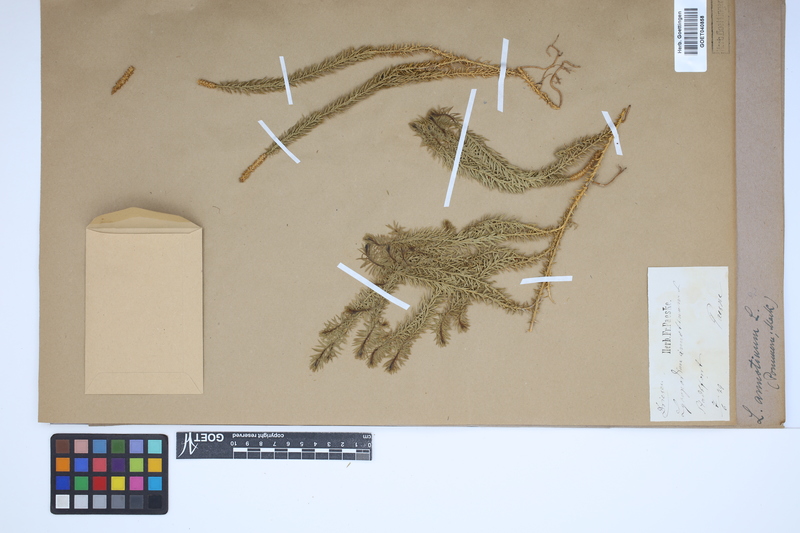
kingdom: Plantae
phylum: Tracheophyta
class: Lycopodiopsida
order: Lycopodiales
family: Lycopodiaceae
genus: Spinulum
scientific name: Spinulum annotinum
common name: Interrupted club-moss
